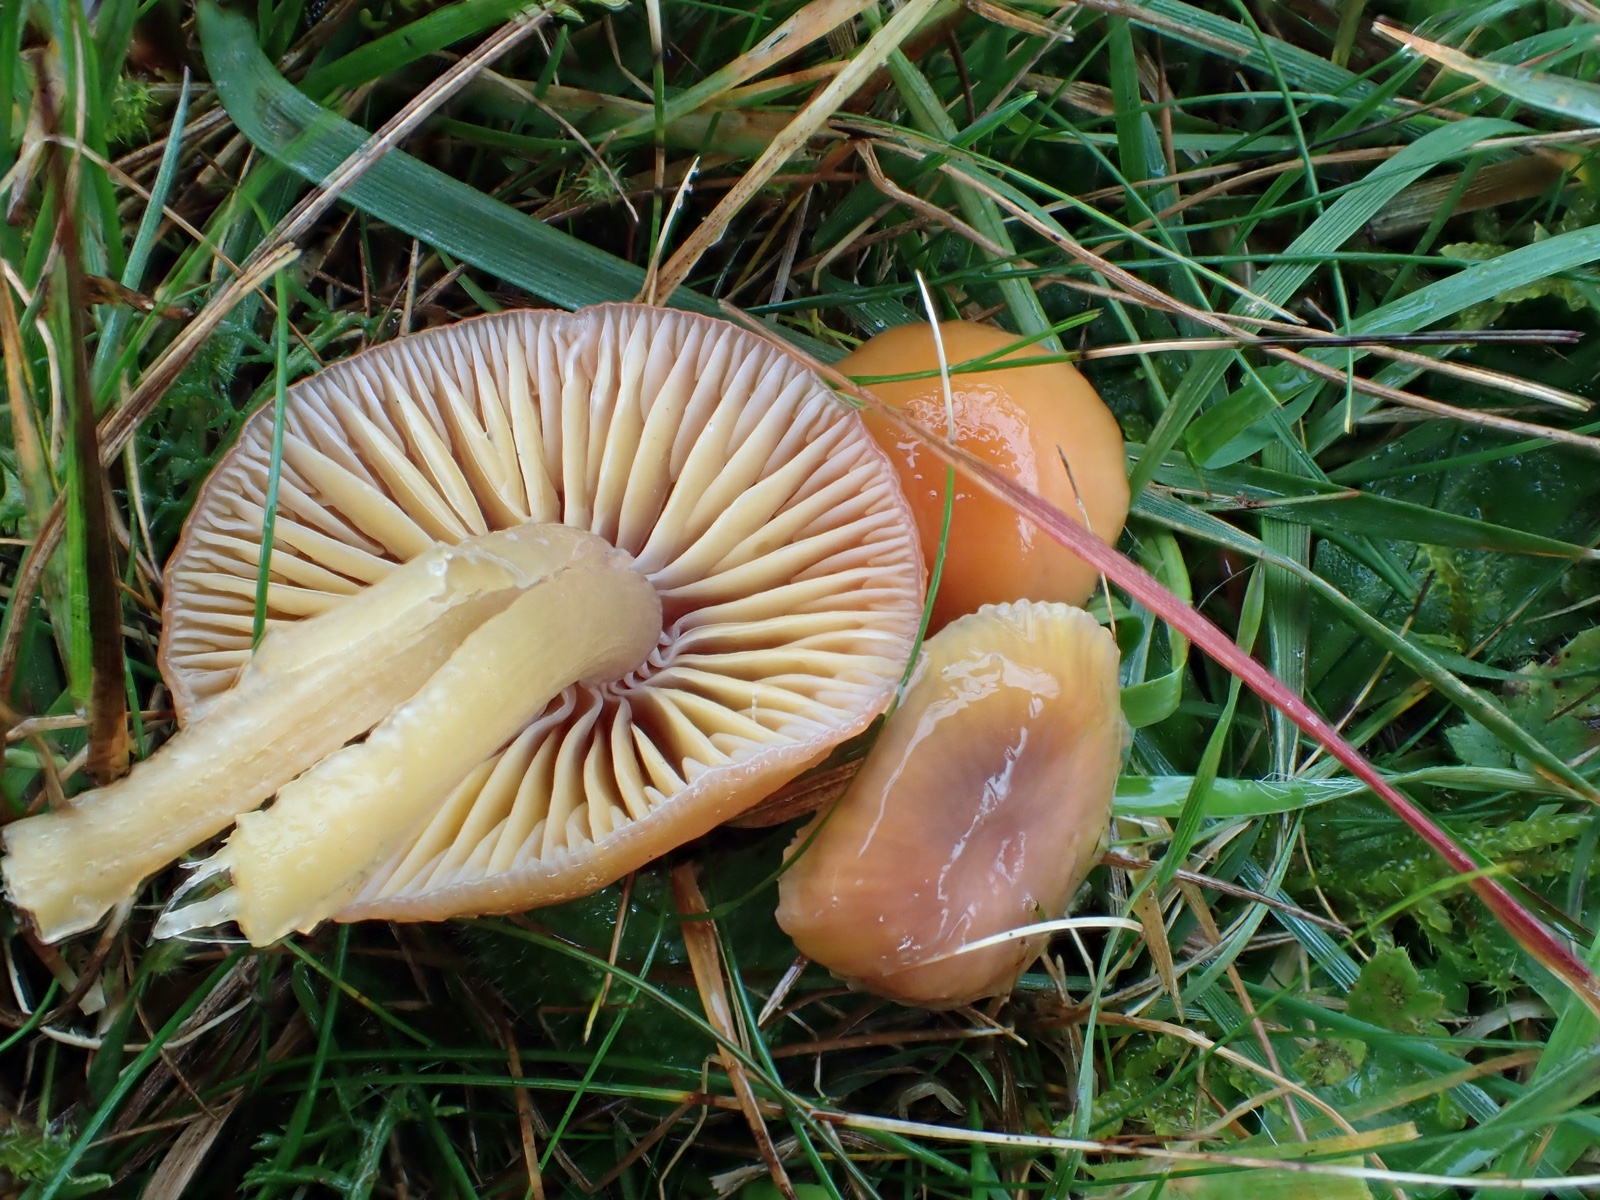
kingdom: Fungi
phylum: Basidiomycota
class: Agaricomycetes
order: Agaricales
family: Hygrophoraceae
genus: Gliophorus
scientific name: Gliophorus laetus
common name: brusk-vokshat
